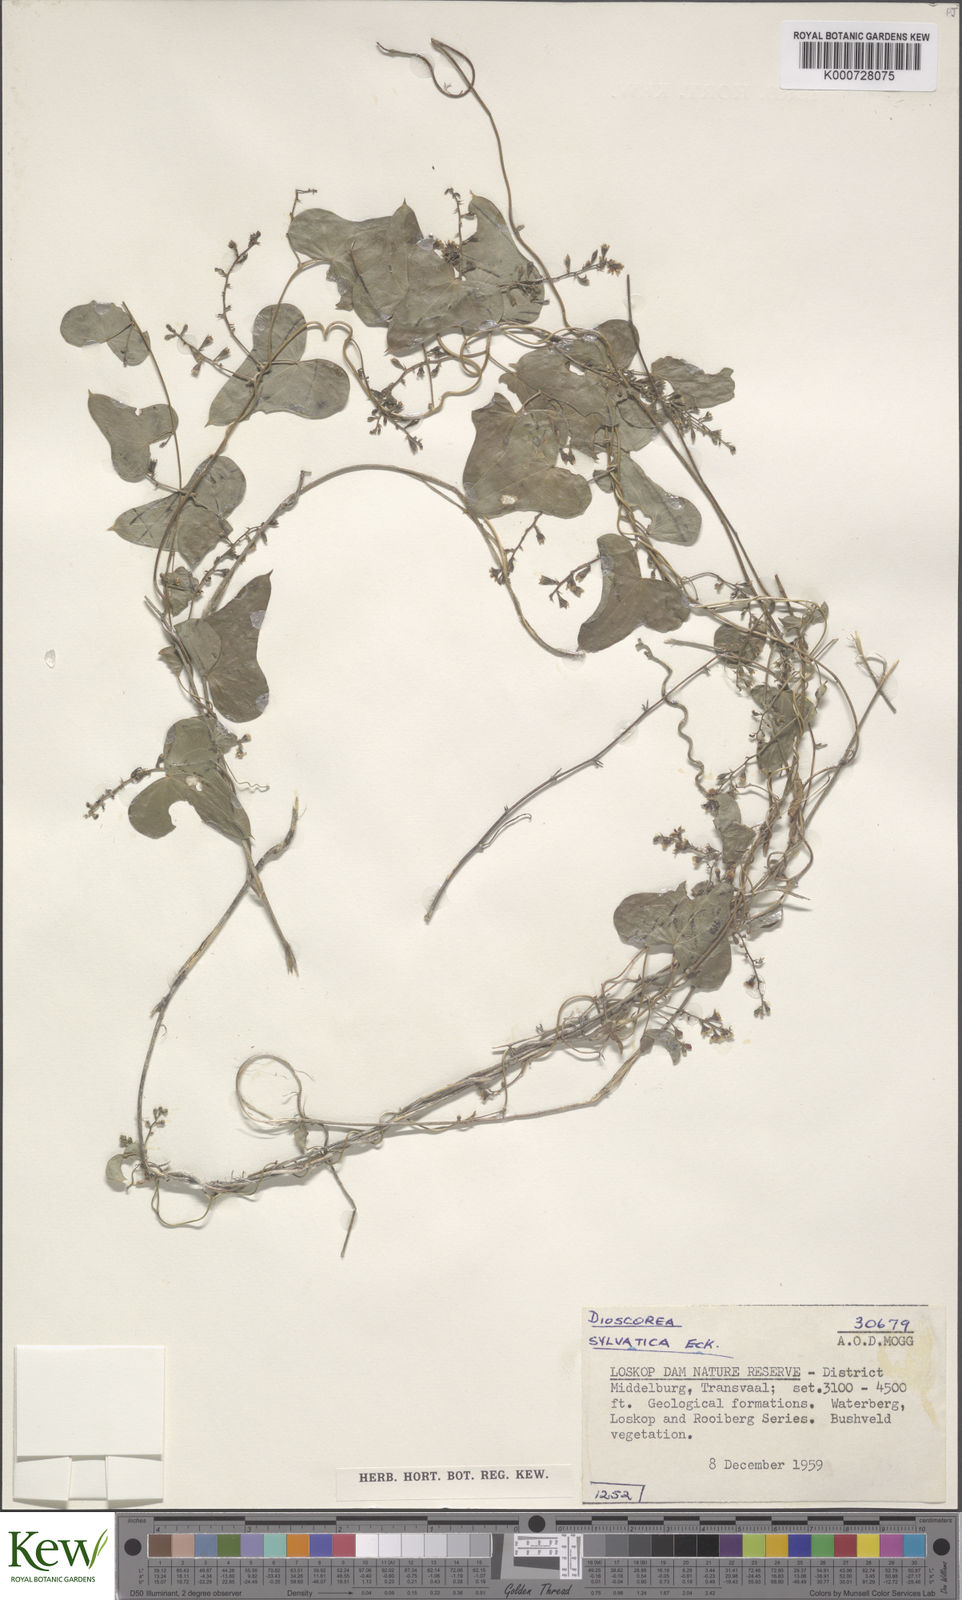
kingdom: Plantae
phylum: Tracheophyta
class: Liliopsida
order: Dioscoreales
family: Dioscoreaceae
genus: Dioscorea
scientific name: Dioscorea sylvatica
